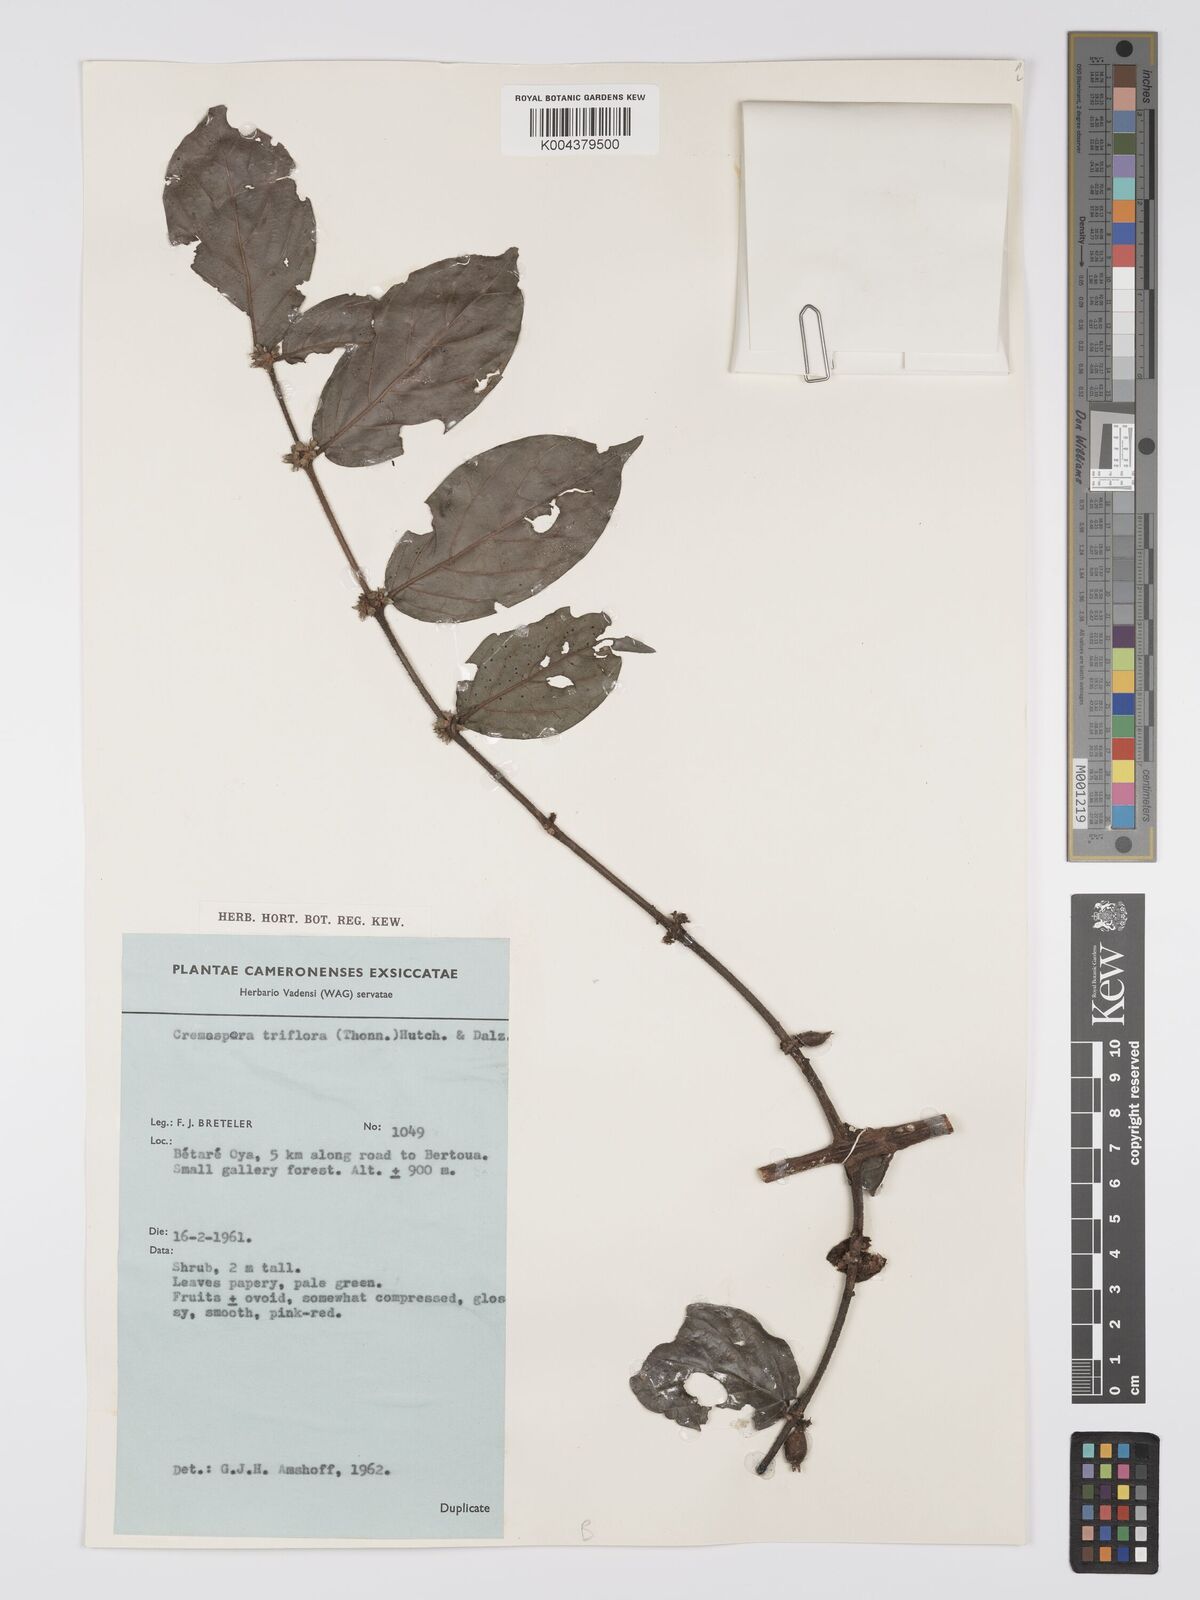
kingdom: Plantae
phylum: Tracheophyta
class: Magnoliopsida
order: Gentianales
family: Rubiaceae
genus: Cremaspora
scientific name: Cremaspora triflora
